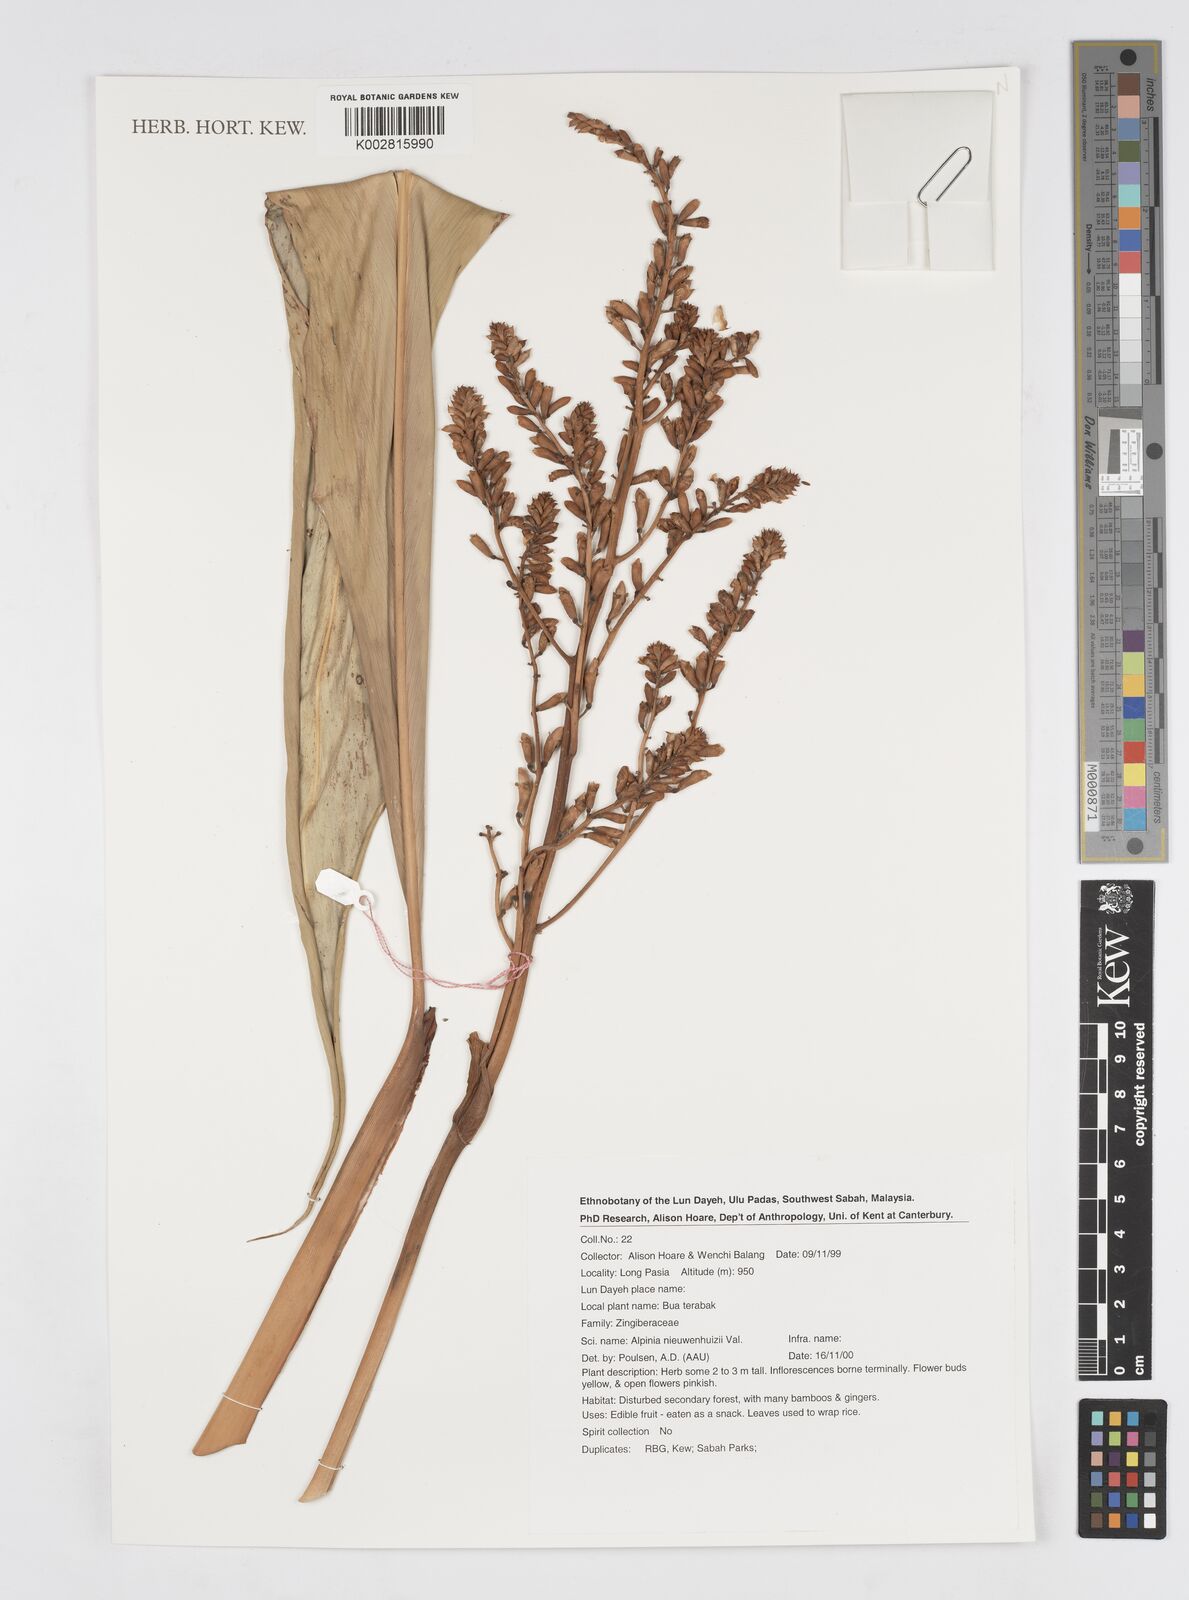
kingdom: Plantae
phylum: Tracheophyta
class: Liliopsida
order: Zingiberales
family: Zingiberaceae
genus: Alpinia
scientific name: Alpinia nieuwenhuizii
